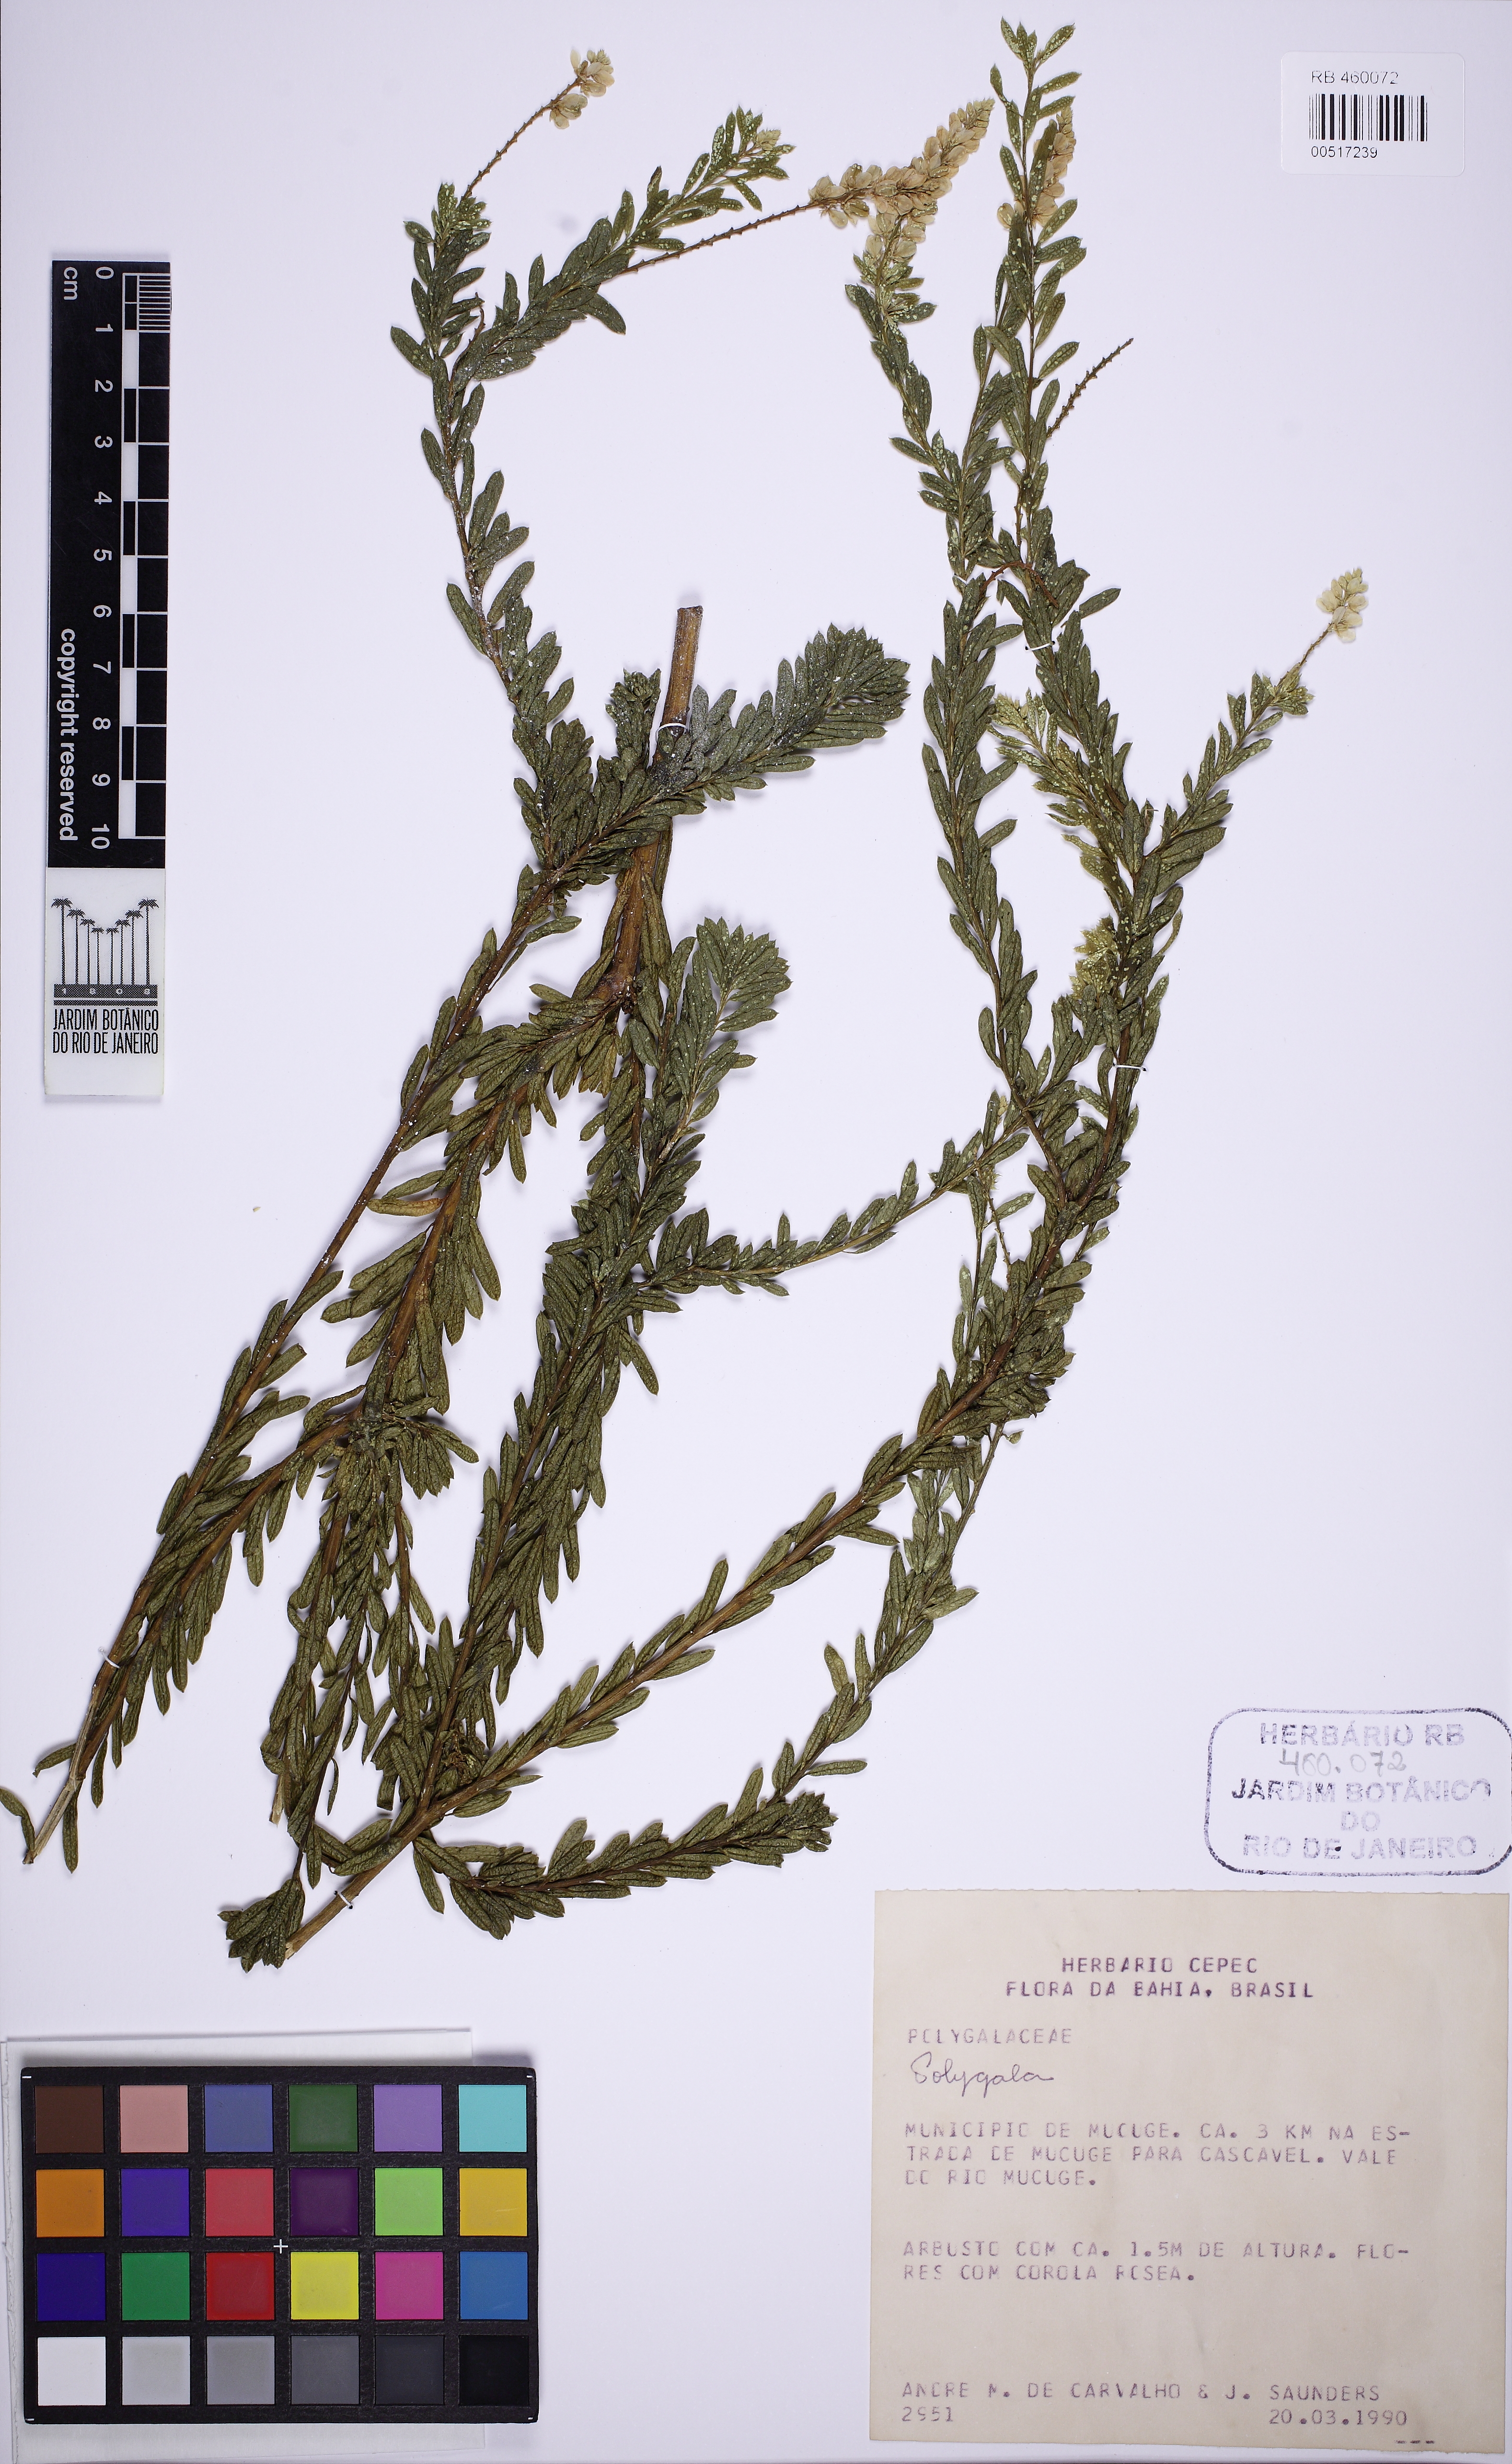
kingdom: Plantae
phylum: Tracheophyta
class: Magnoliopsida
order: Fabales
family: Polygalaceae
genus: Polygala
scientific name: Polygala tuberculata
